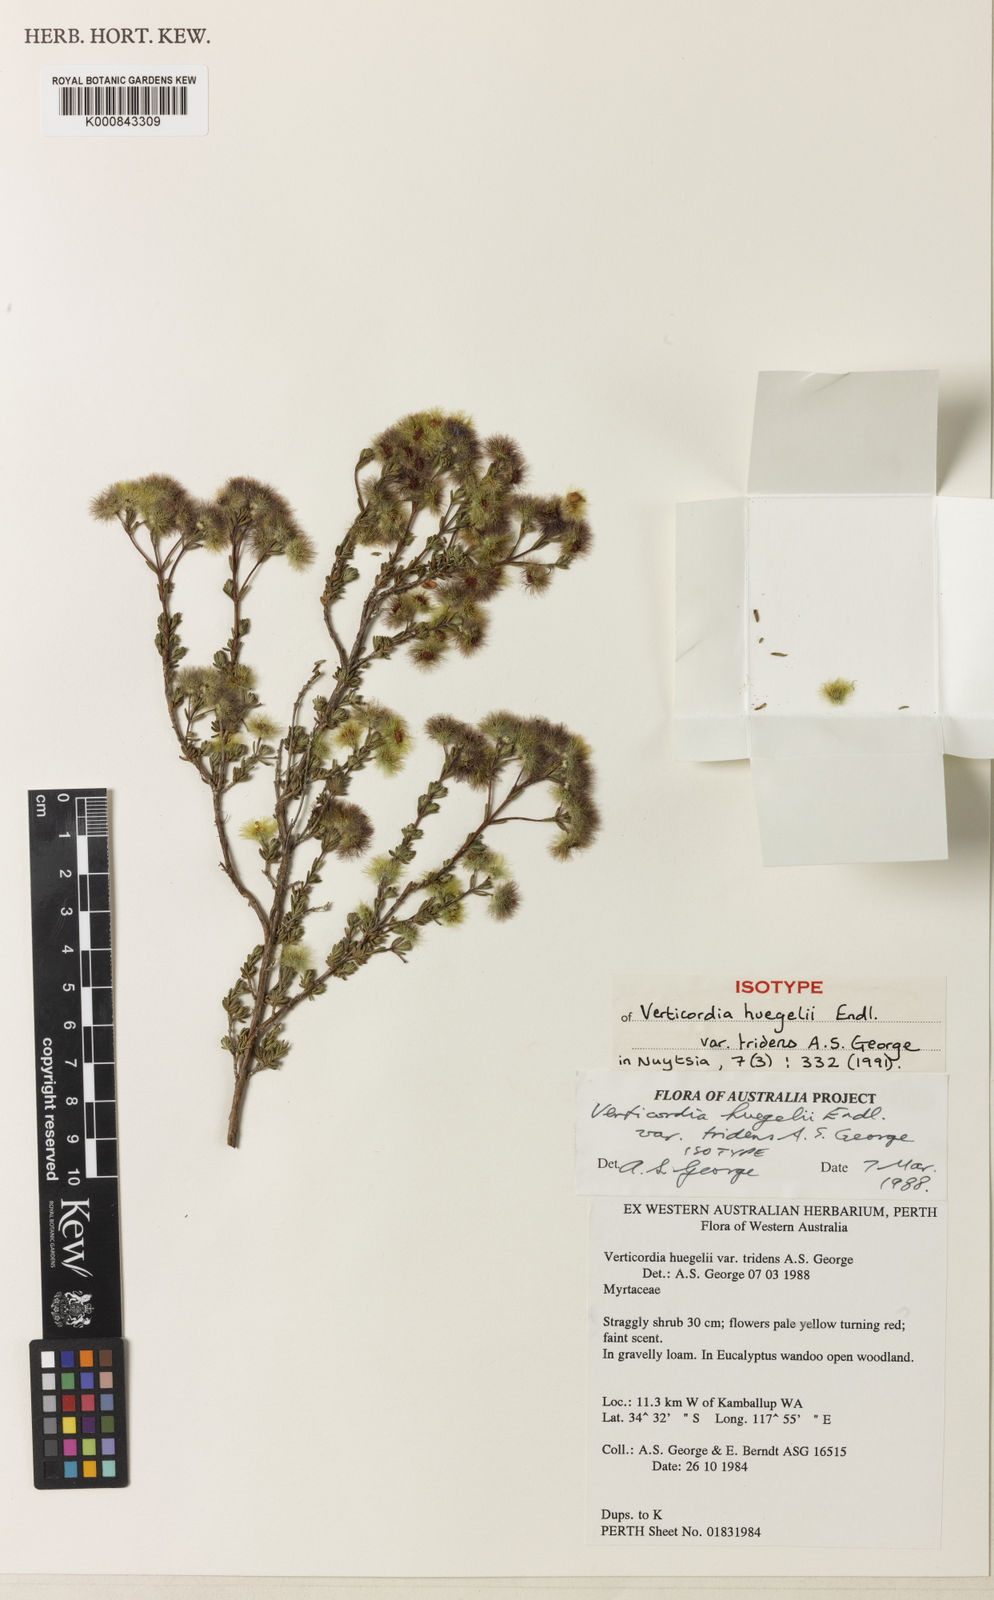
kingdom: Plantae
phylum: Tracheophyta
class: Magnoliopsida
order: Myrtales
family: Myrtaceae
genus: Verticordia
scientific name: Verticordia
